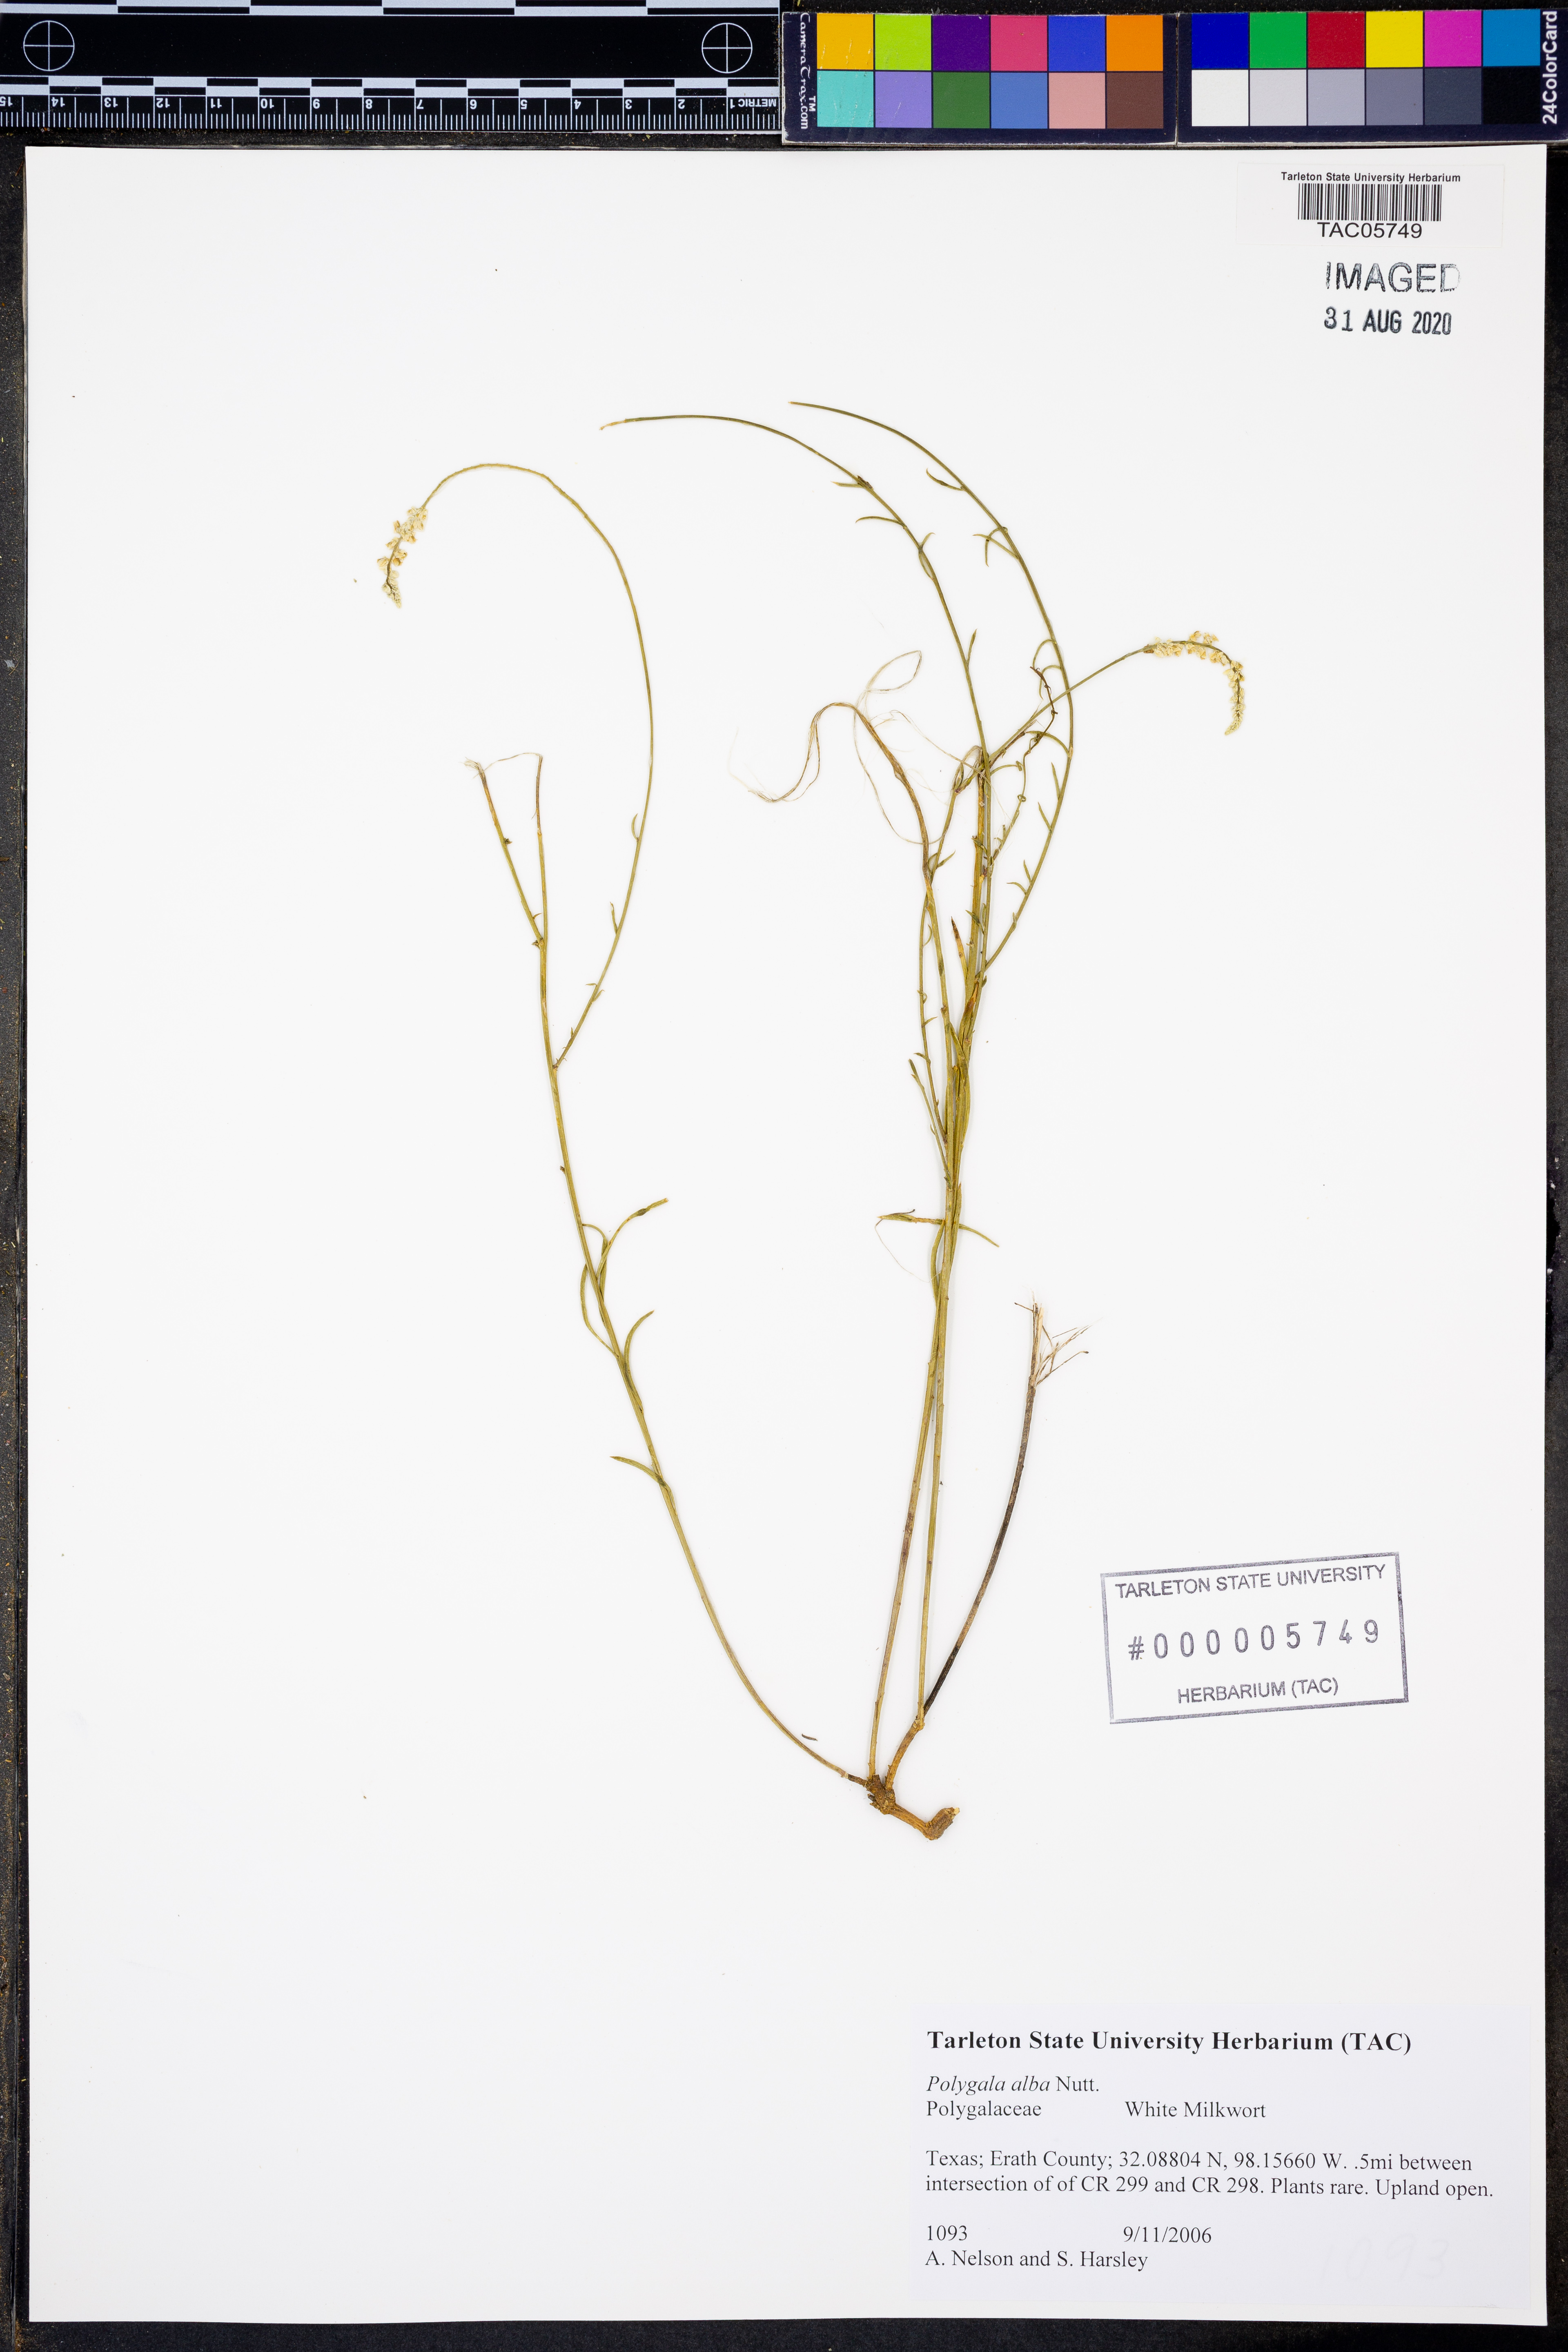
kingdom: Plantae
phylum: Tracheophyta
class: Magnoliopsida
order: Fabales
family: Polygalaceae
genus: Polygala
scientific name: Polygala alba
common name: White milkwort
